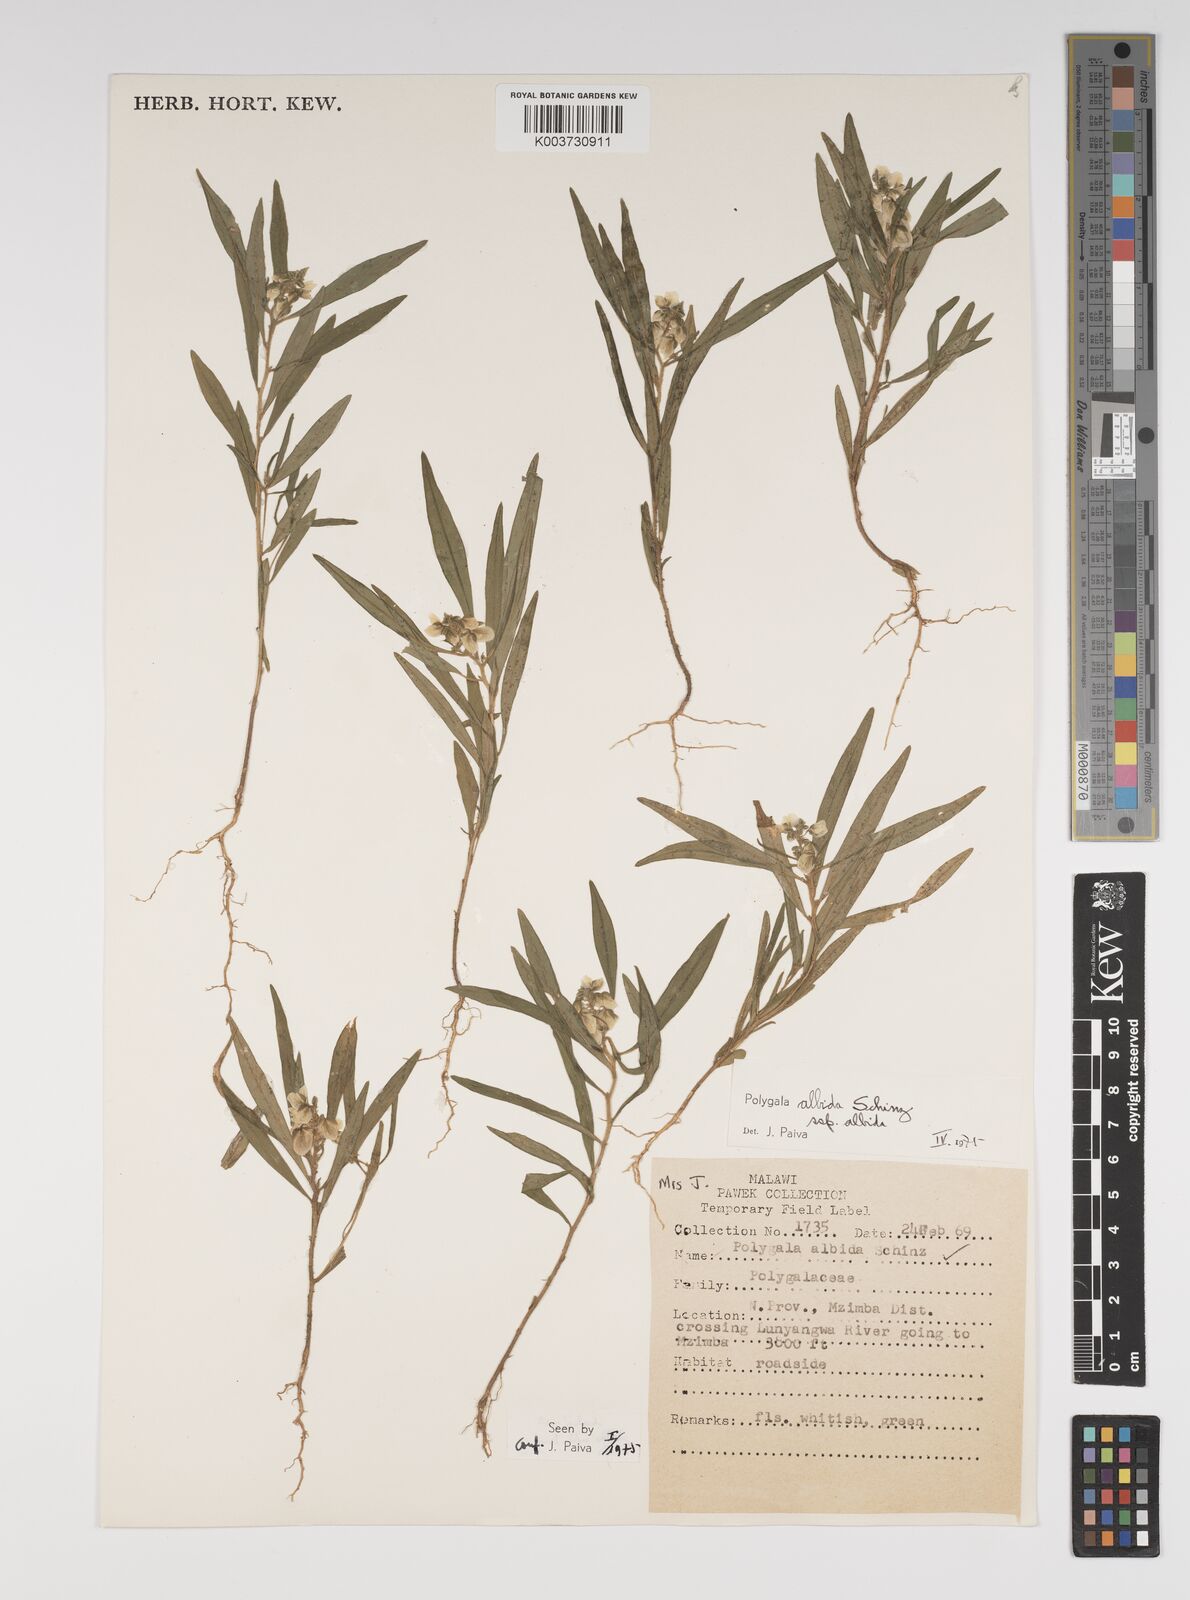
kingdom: Plantae
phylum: Tracheophyta
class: Magnoliopsida
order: Fabales
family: Polygalaceae
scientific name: Polygalaceae
